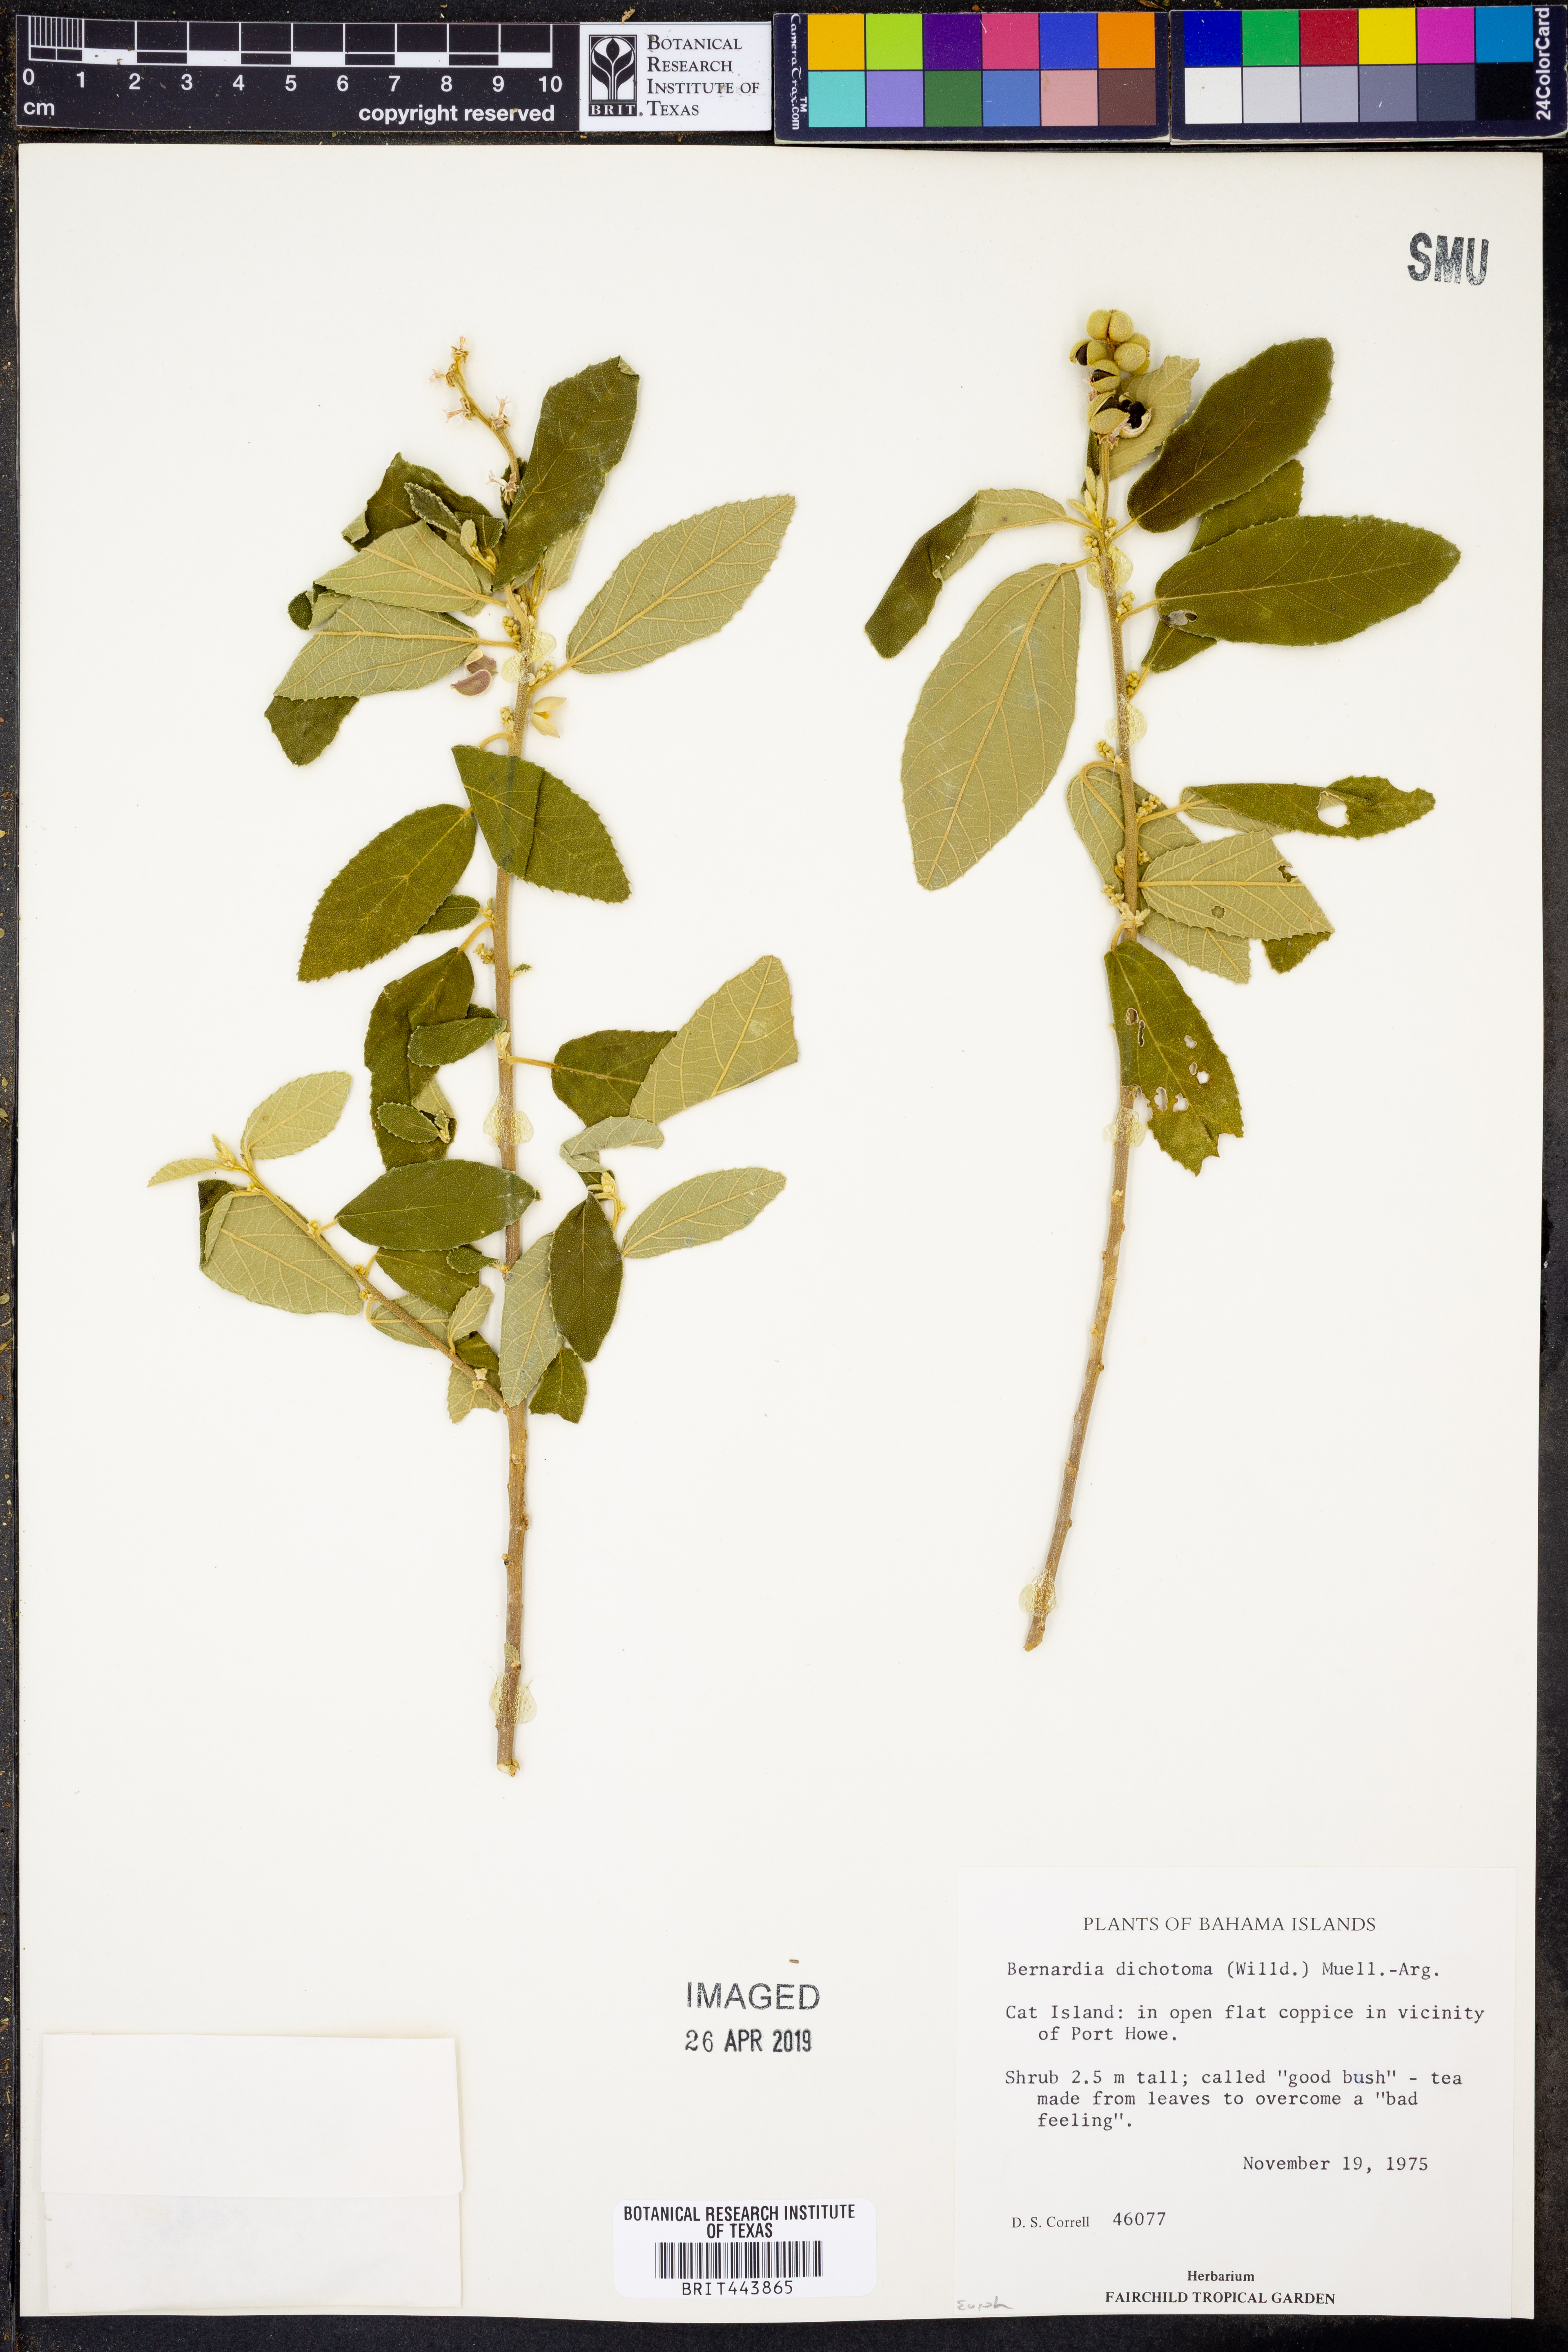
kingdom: Plantae
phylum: Tracheophyta
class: Magnoliopsida
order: Malpighiales
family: Euphorbiaceae
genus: Bernardia
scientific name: Bernardia dichotoma
